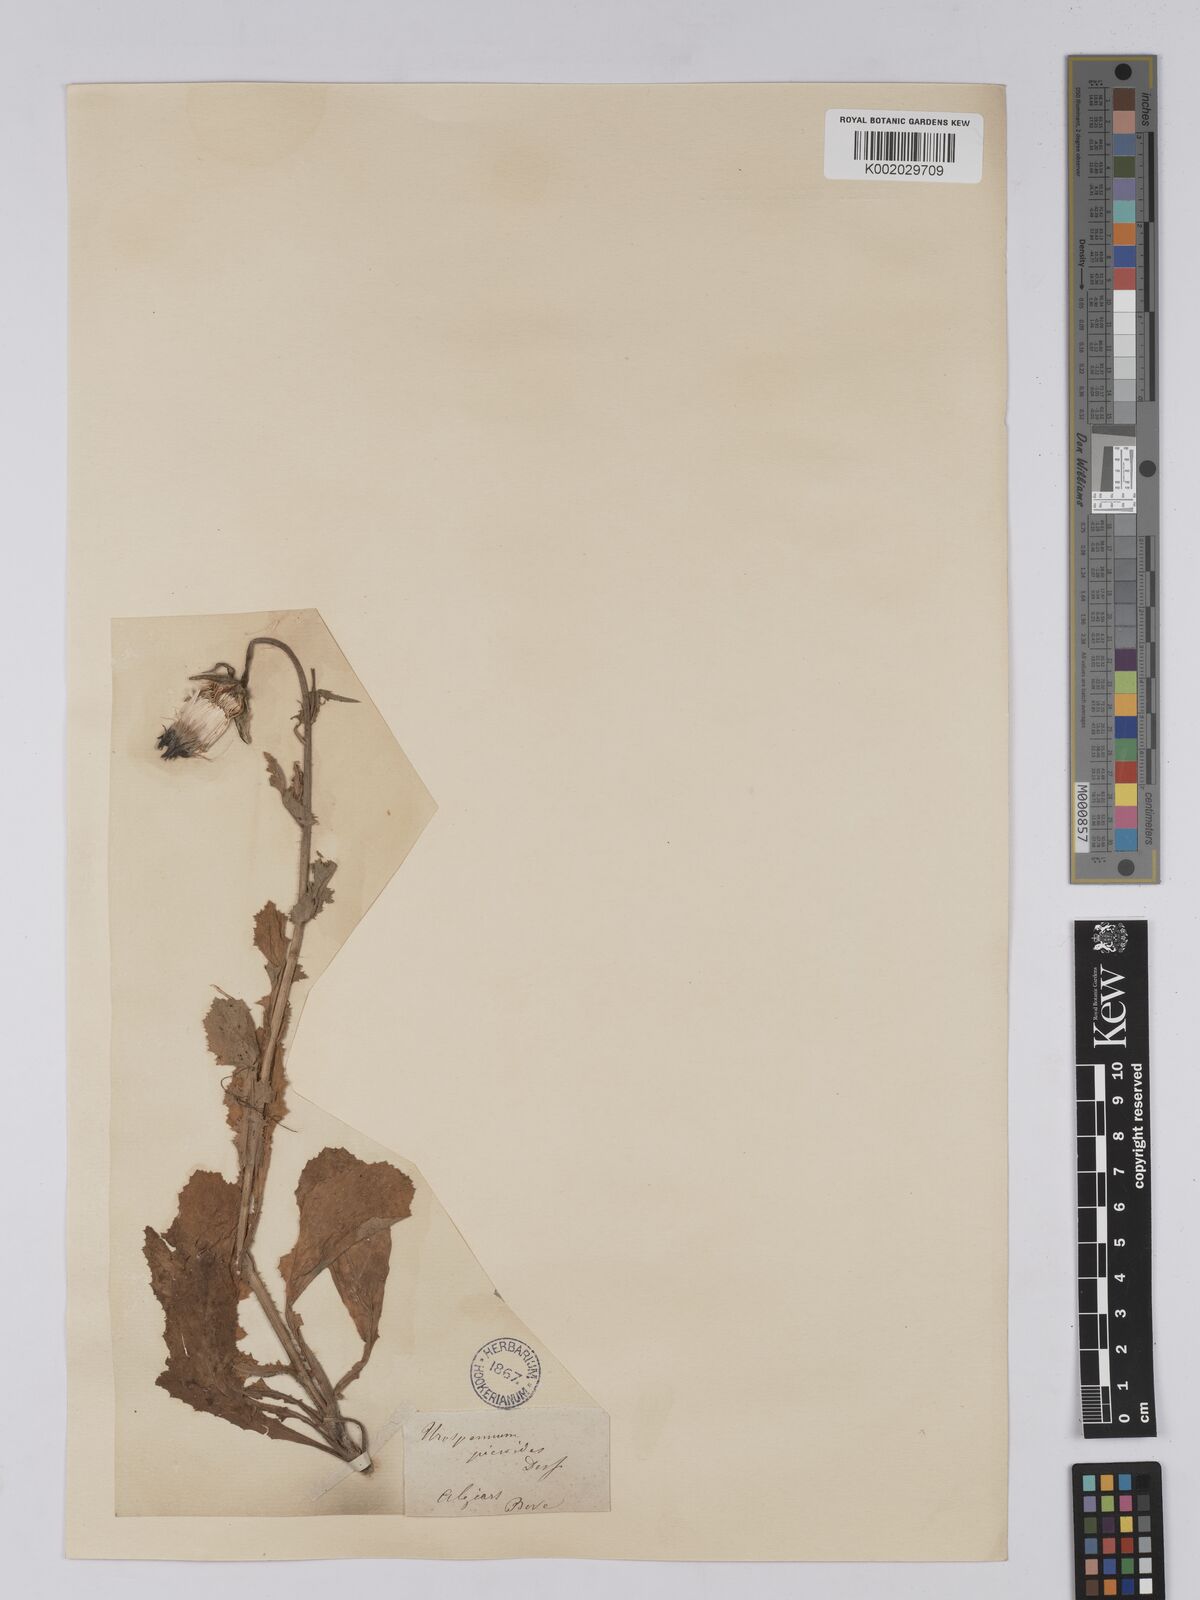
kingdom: Plantae
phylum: Tracheophyta
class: Magnoliopsida
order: Asterales
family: Asteraceae
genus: Urospermum
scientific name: Urospermum picroides
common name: False hawkbit
